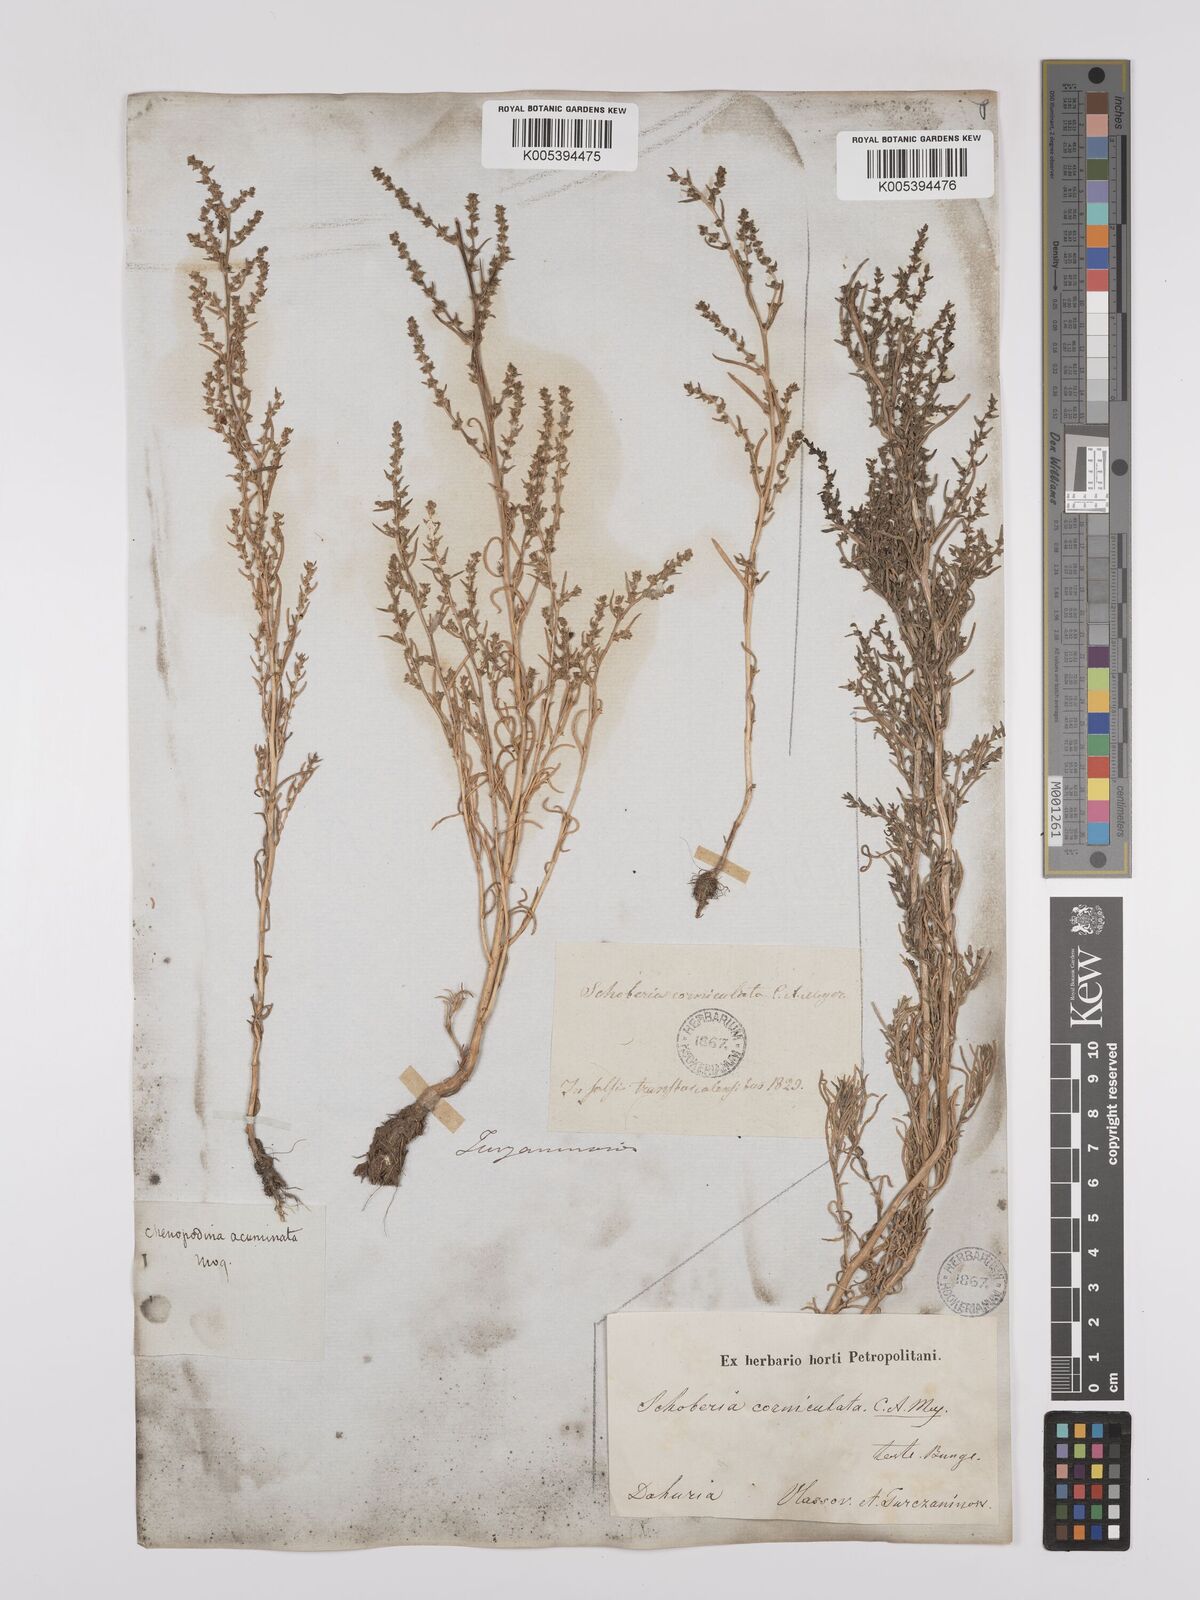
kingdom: Plantae
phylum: Tracheophyta
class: Magnoliopsida
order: Caryophyllales
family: Amaranthaceae
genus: Suaeda
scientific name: Suaeda acuminata
